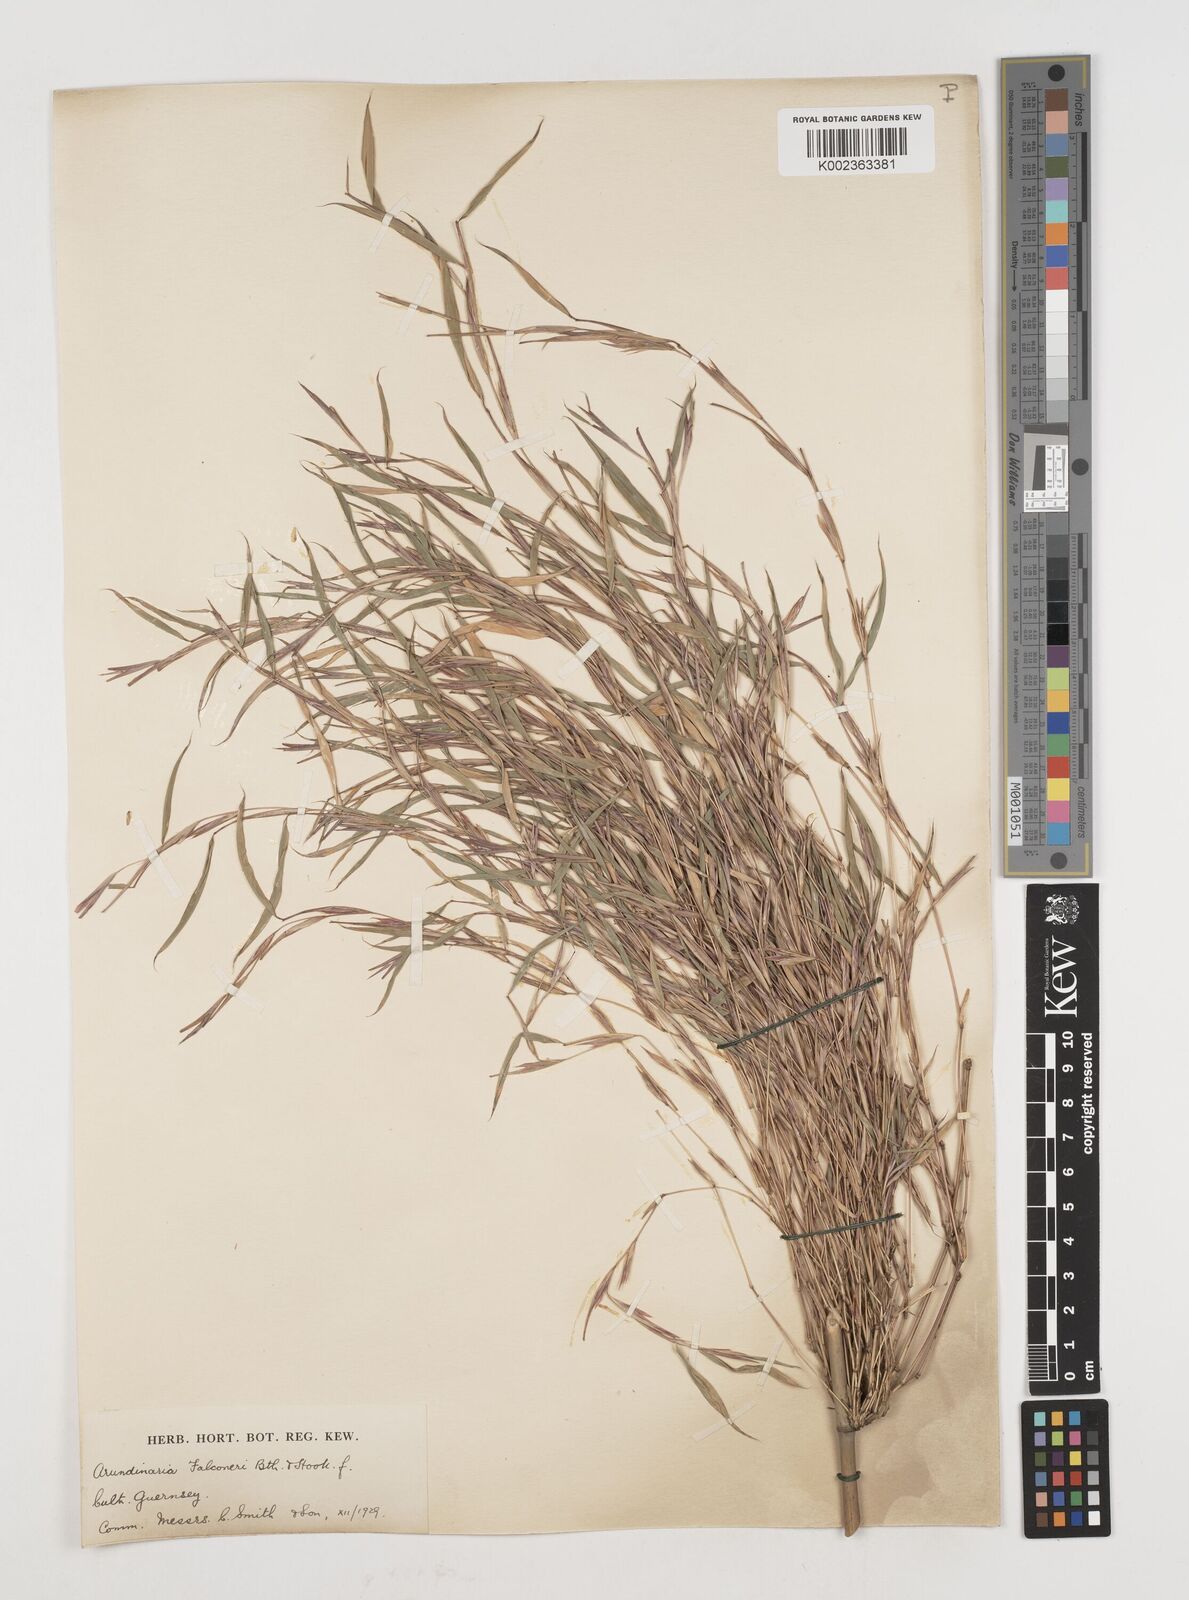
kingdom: Plantae
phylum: Tracheophyta
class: Liliopsida
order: Poales
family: Poaceae
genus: Himalayacalamus
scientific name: Himalayacalamus falconeri
